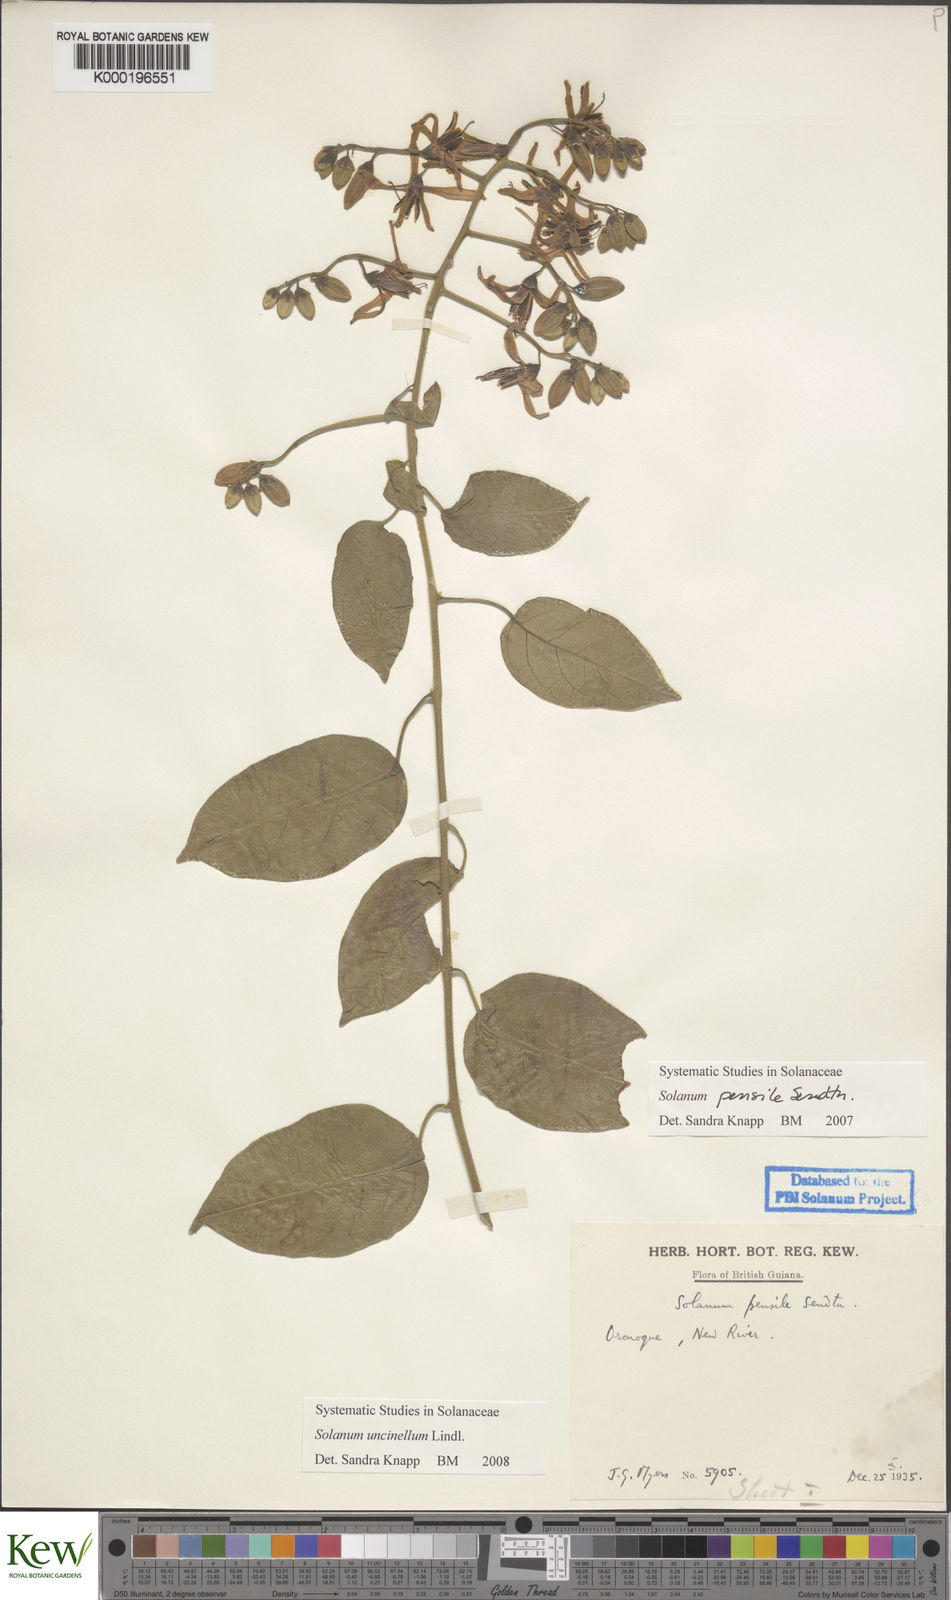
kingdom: Plantae
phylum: Tracheophyta
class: Magnoliopsida
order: Solanales
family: Solanaceae
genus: Solanum
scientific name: Solanum uncinellum
